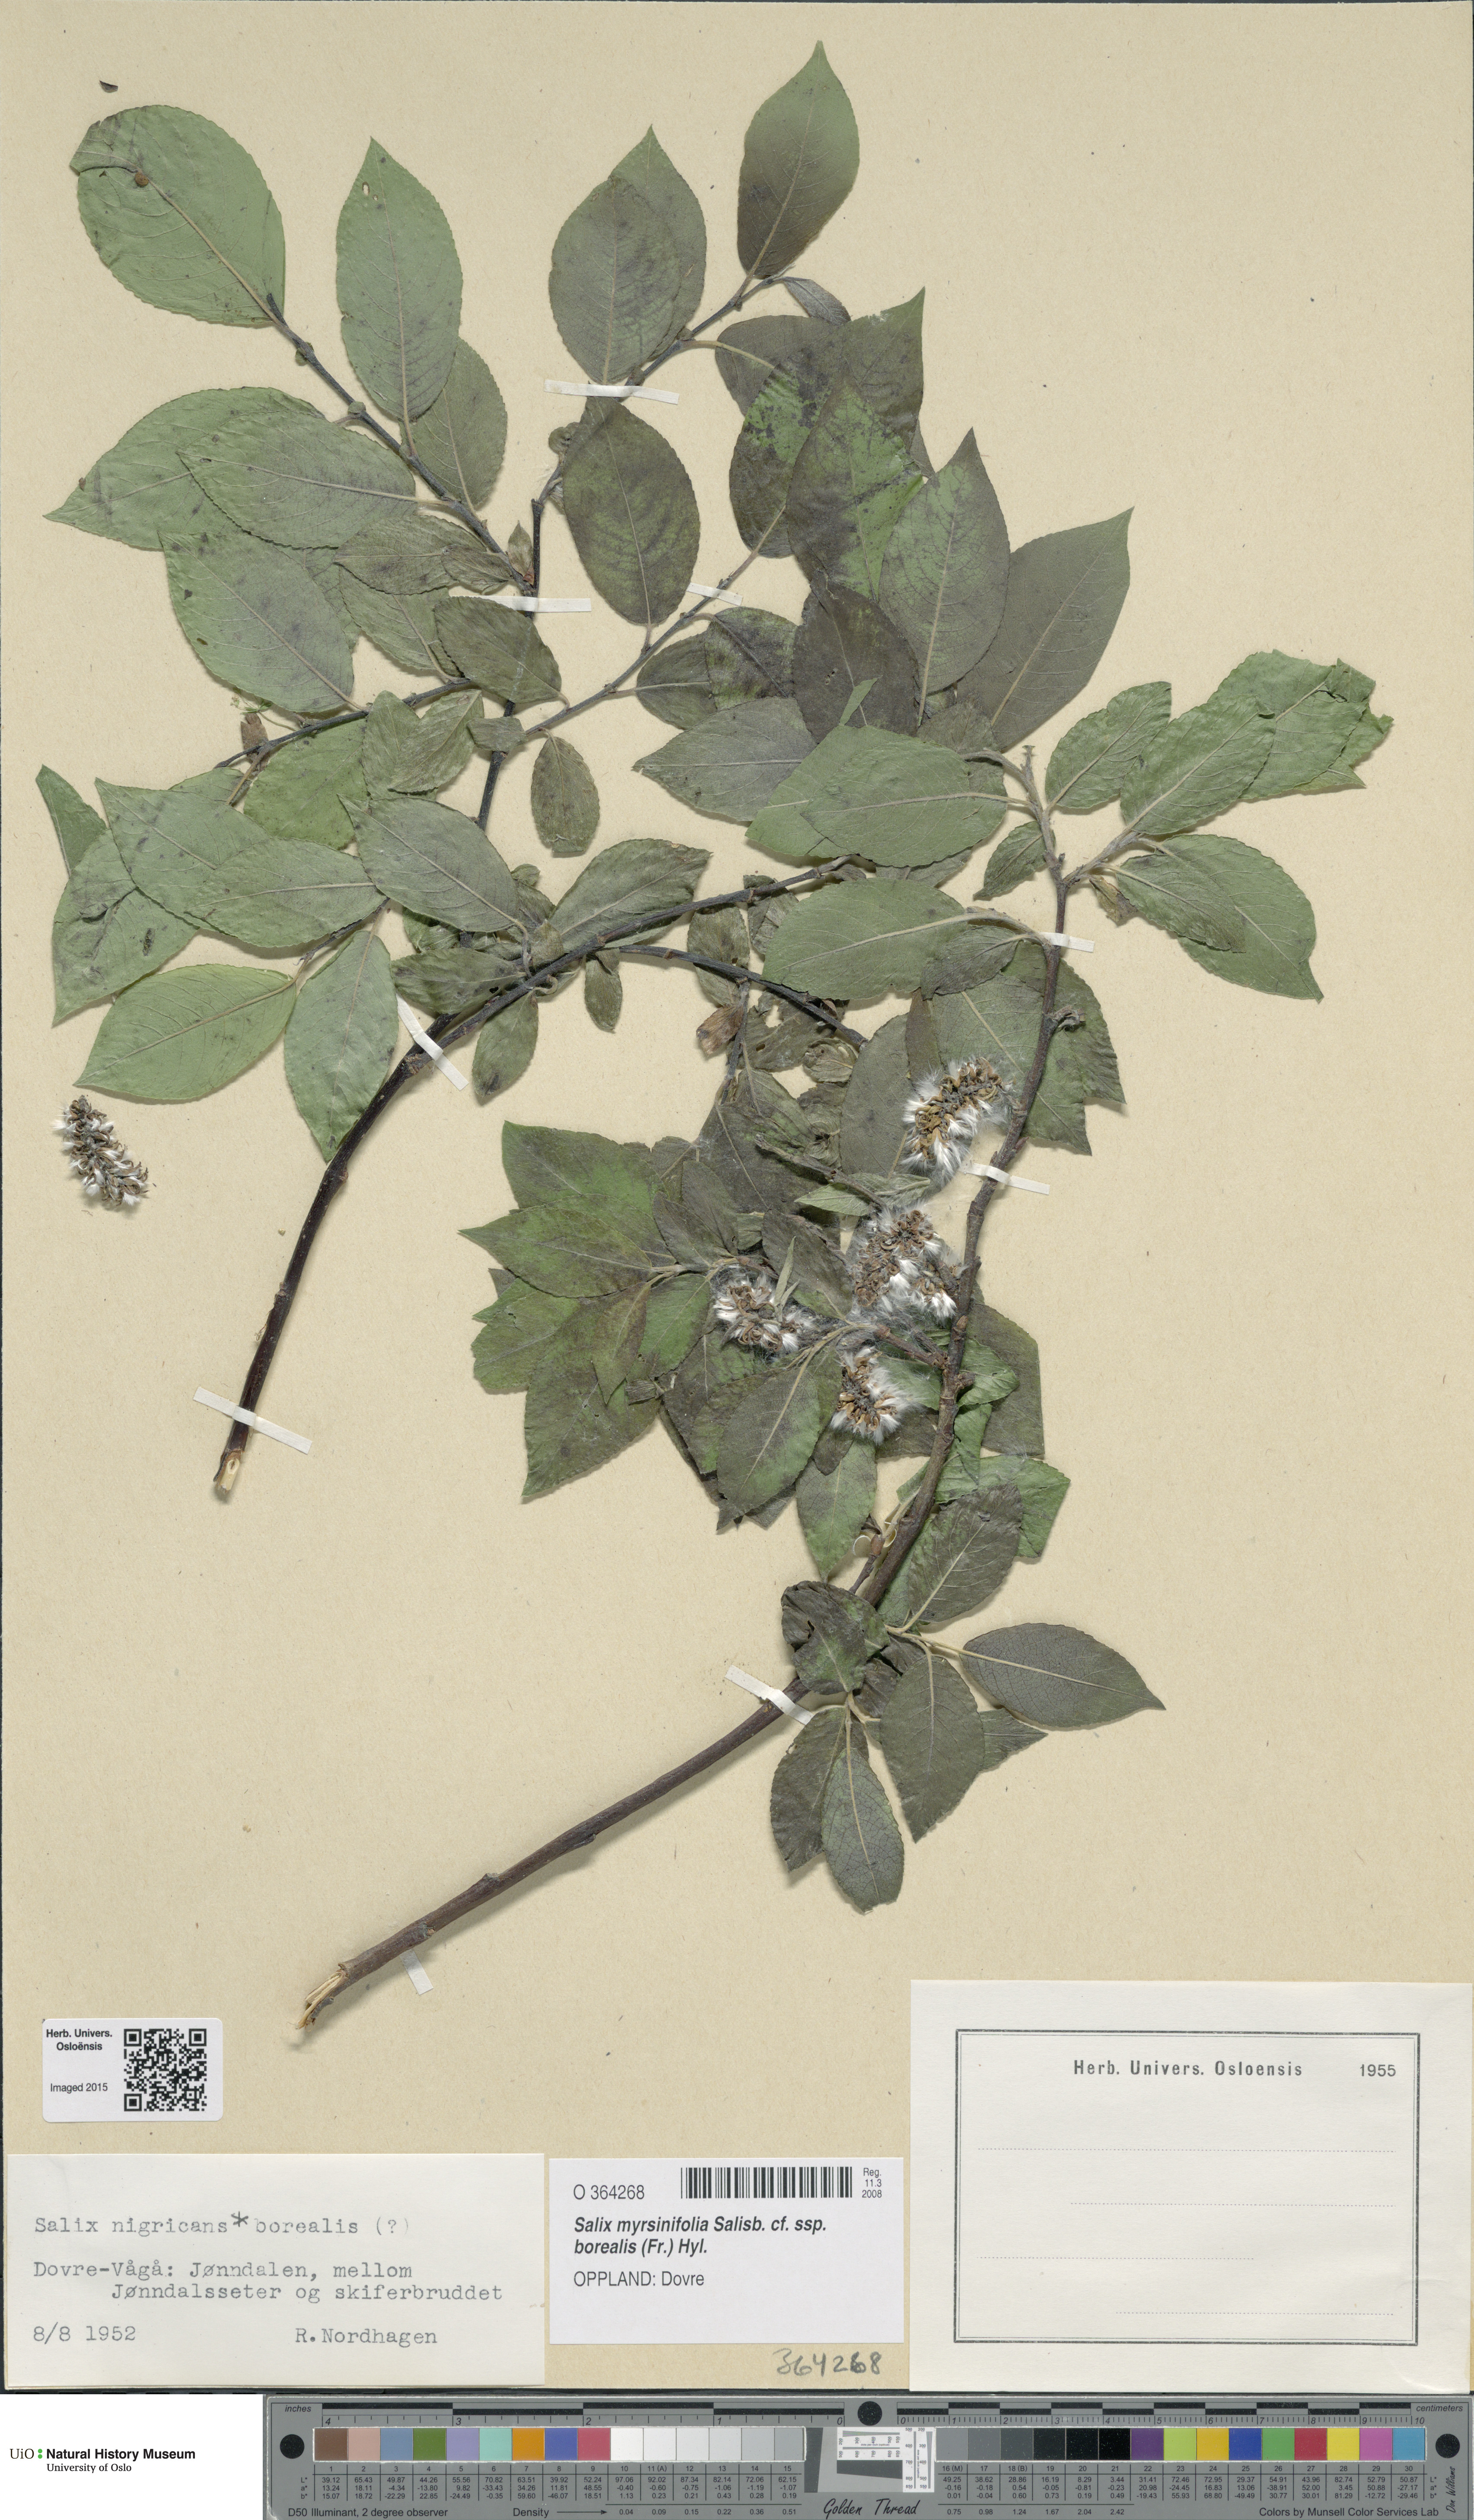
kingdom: Plantae
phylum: Tracheophyta
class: Magnoliopsida
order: Malpighiales
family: Salicaceae
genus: Salix
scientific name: Salix myrsinifolia
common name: Dark-leaved willow
